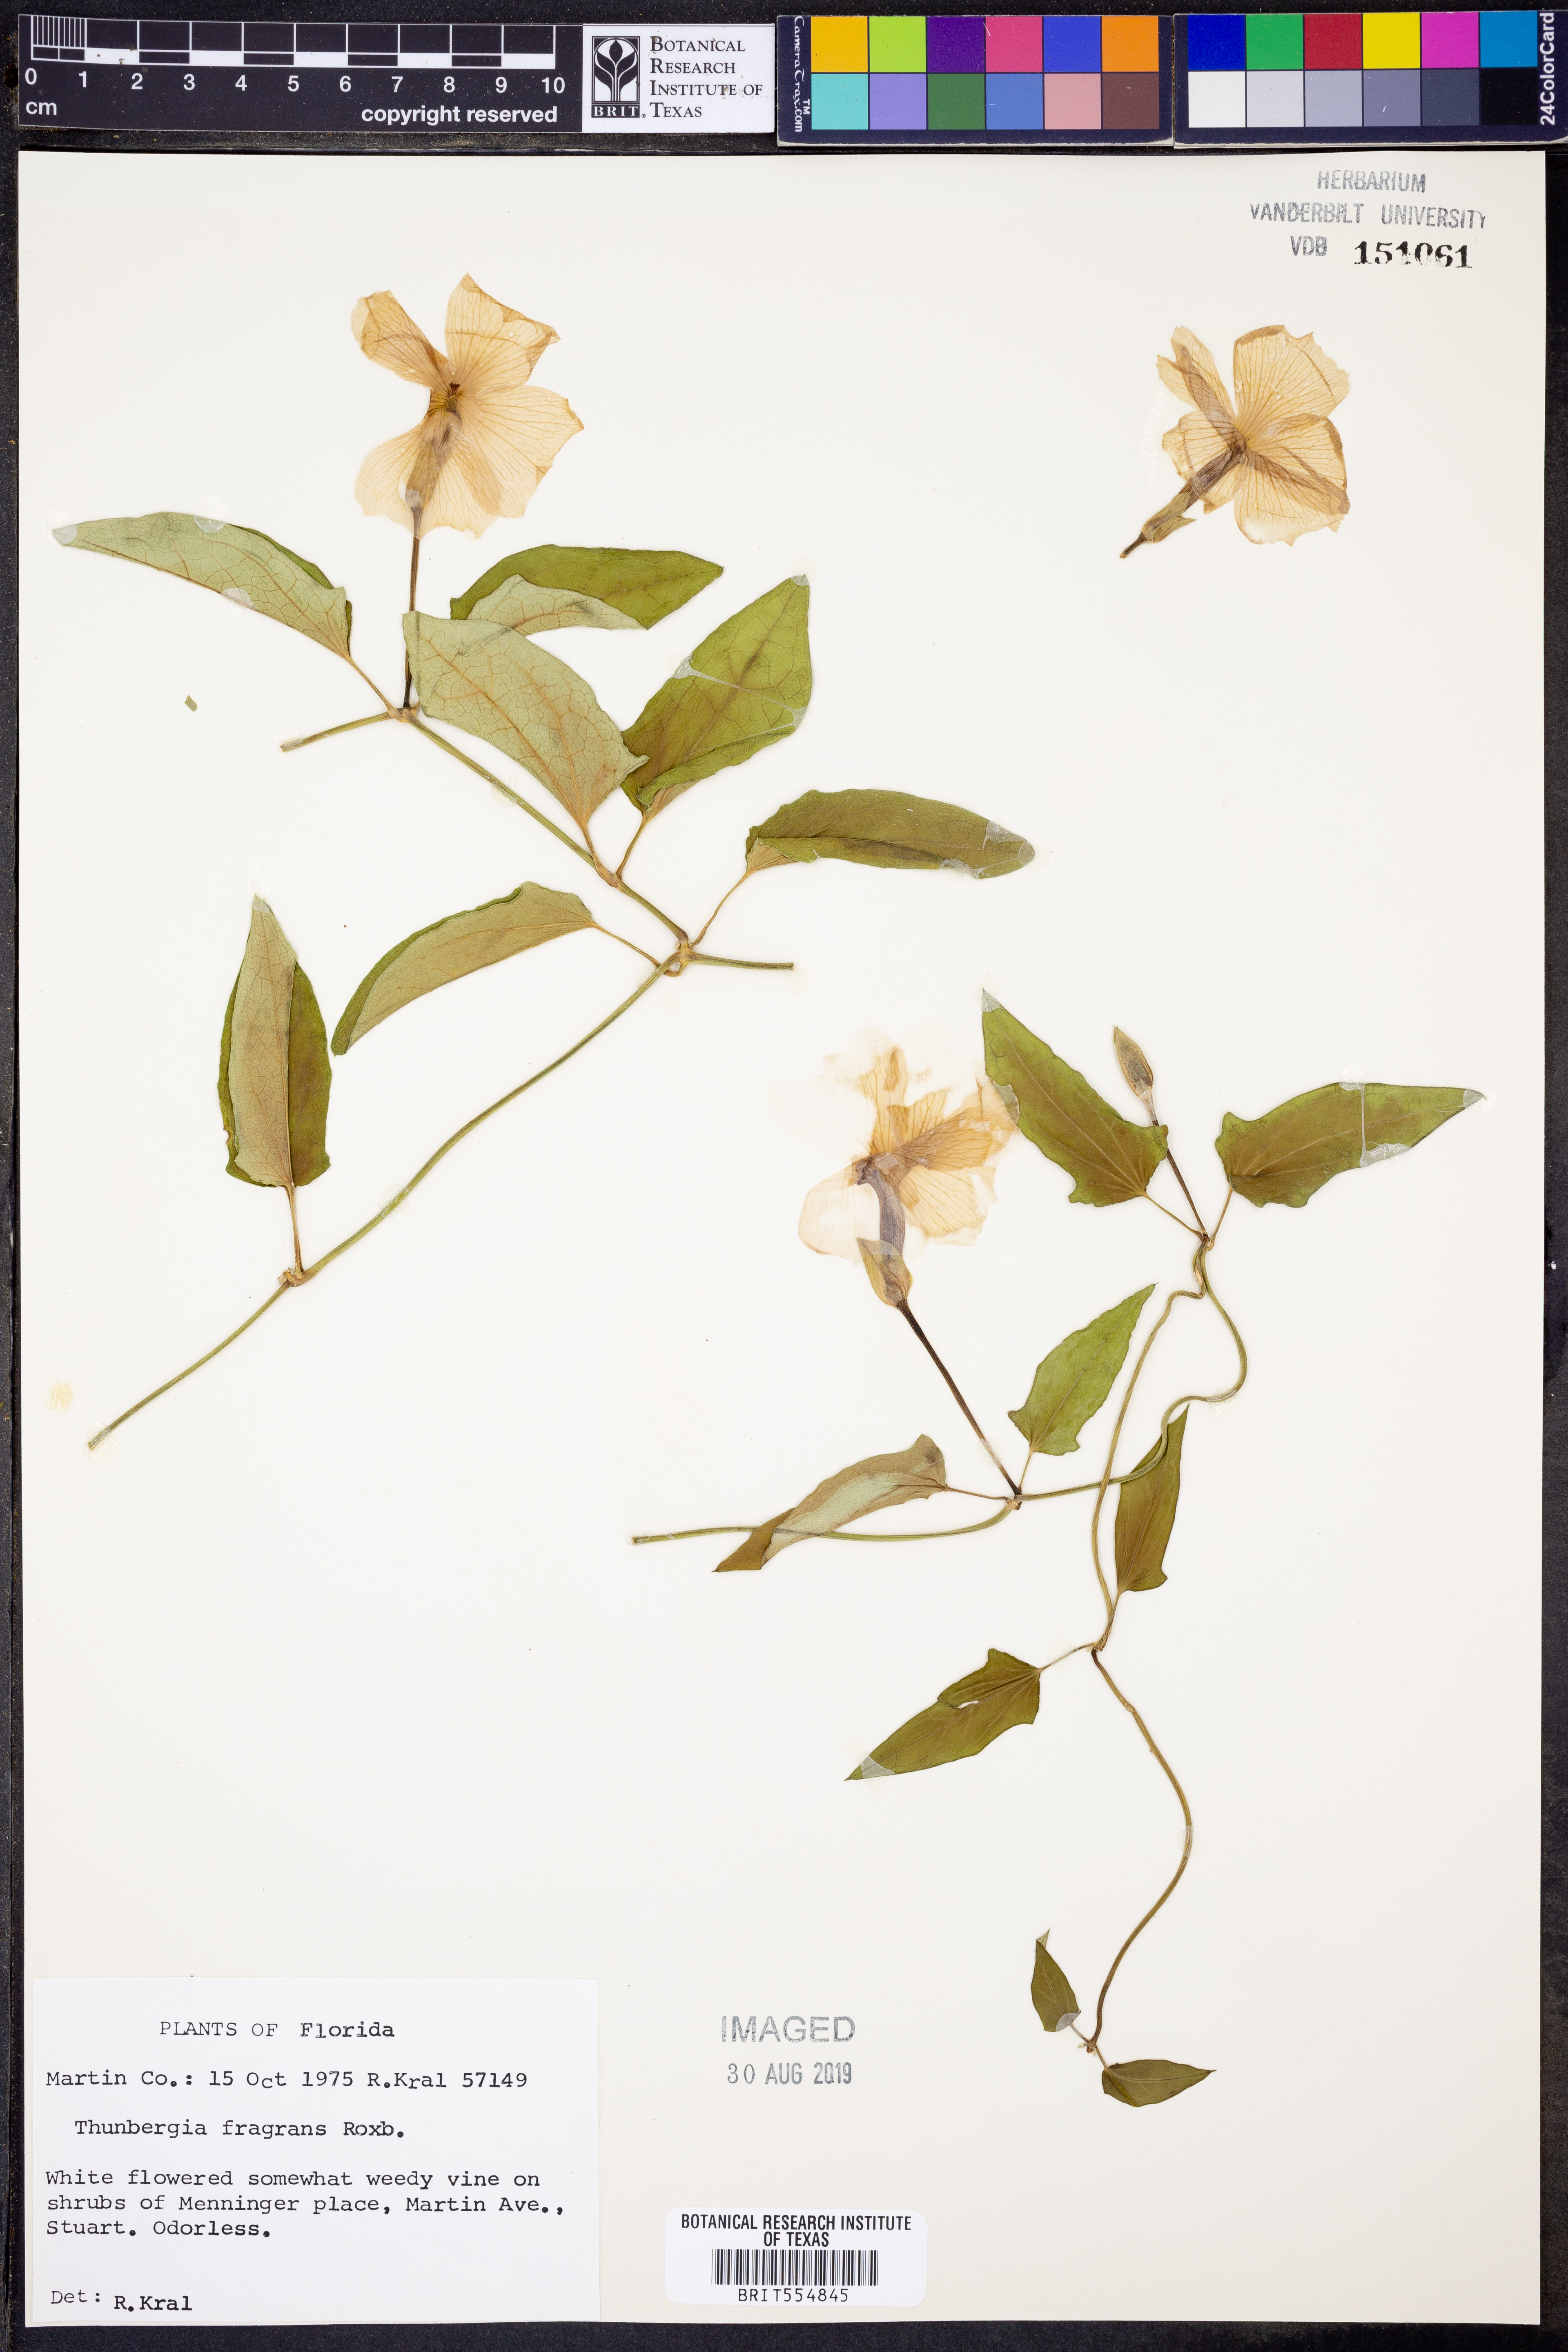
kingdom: Plantae
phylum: Tracheophyta
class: Magnoliopsida
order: Lamiales
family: Acanthaceae
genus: Thunbergia
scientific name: Thunbergia fragrans
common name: Whitelady
